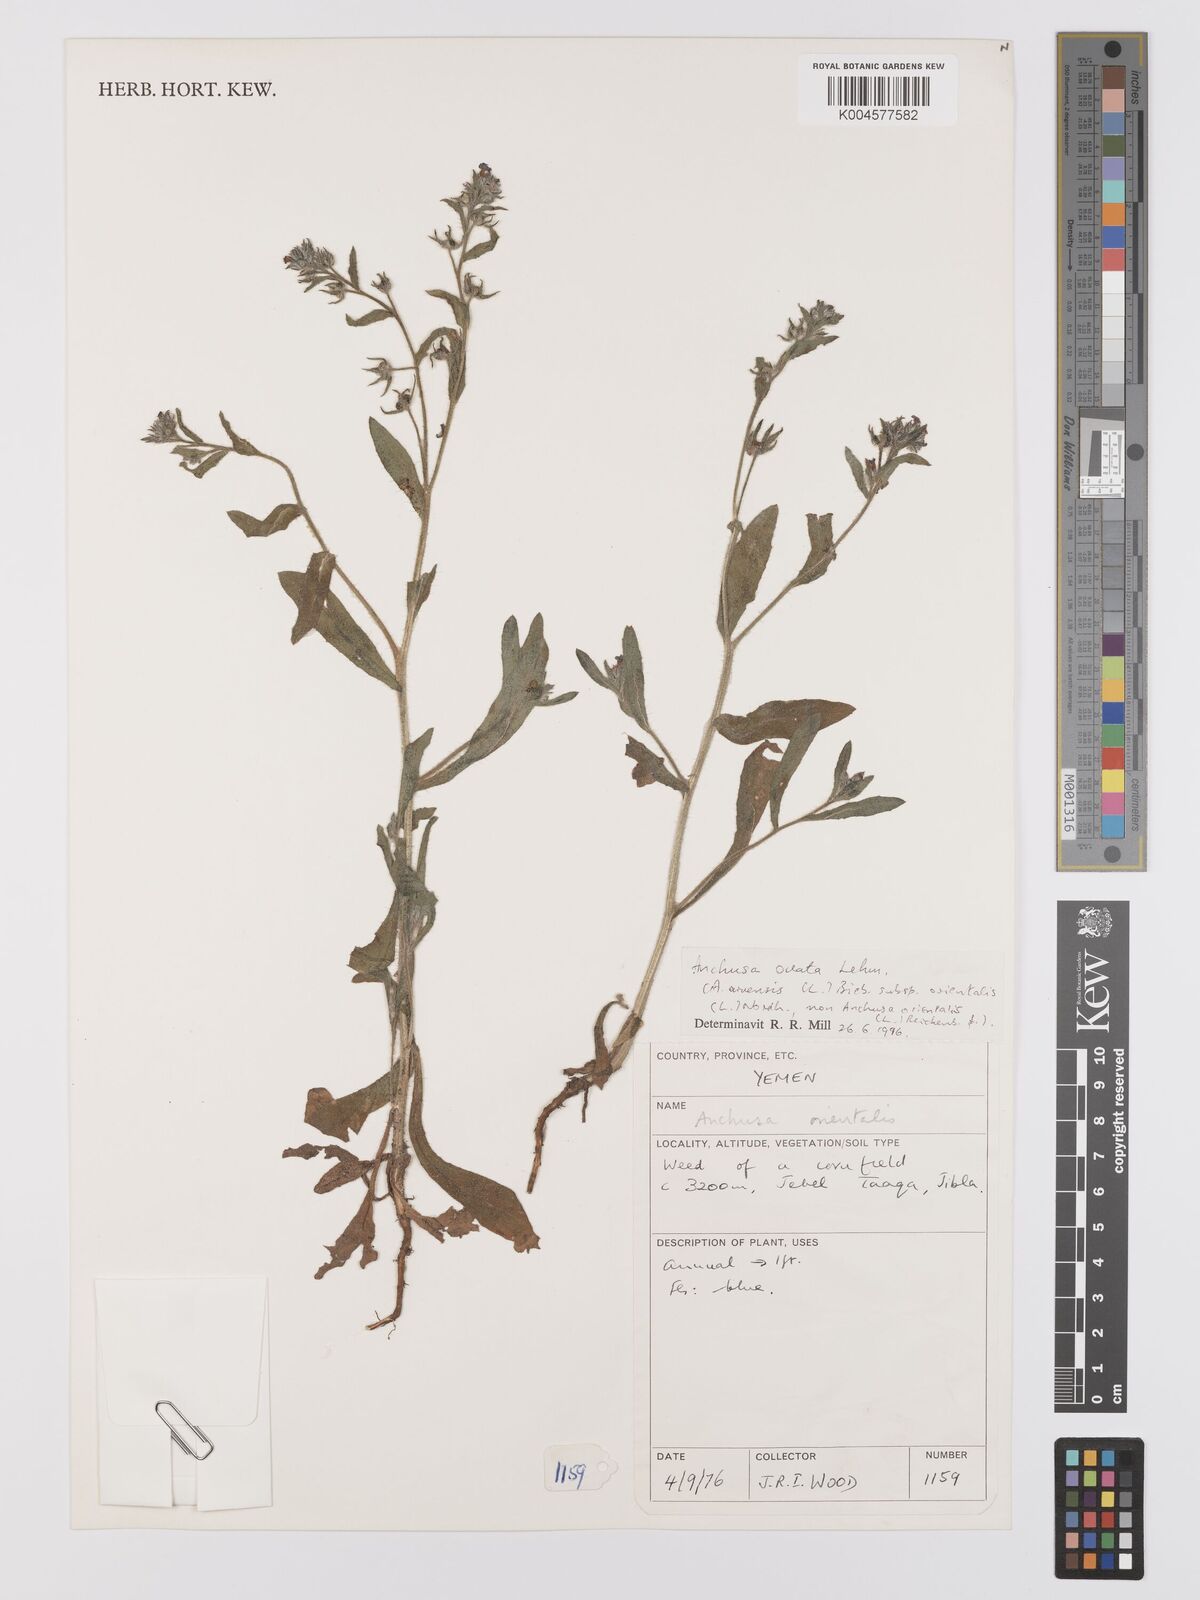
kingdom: Plantae
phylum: Tracheophyta
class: Magnoliopsida
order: Boraginales
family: Boraginaceae
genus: Anchusa
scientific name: Anchusa
